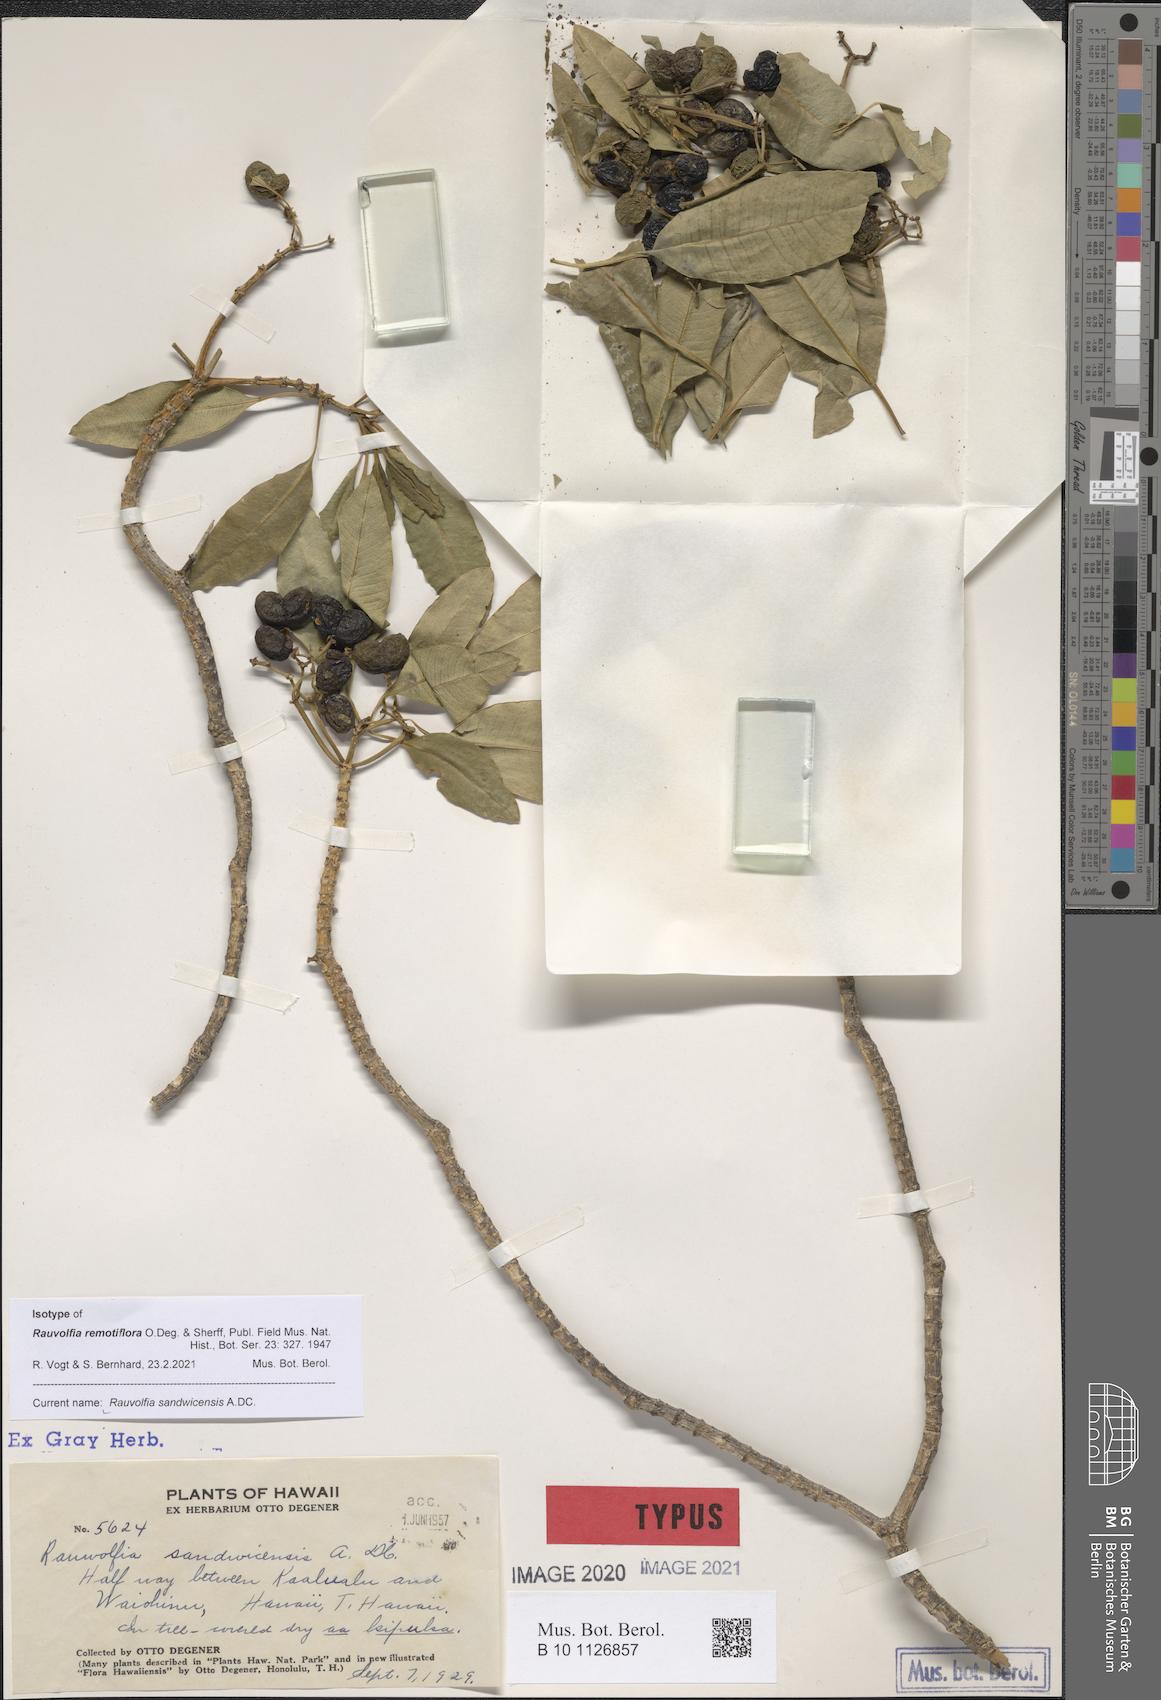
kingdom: Plantae
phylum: Tracheophyta
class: Magnoliopsida
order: Gentianales
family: Apocynaceae
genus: Rauvolfia
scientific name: Rauvolfia sandwicensis
